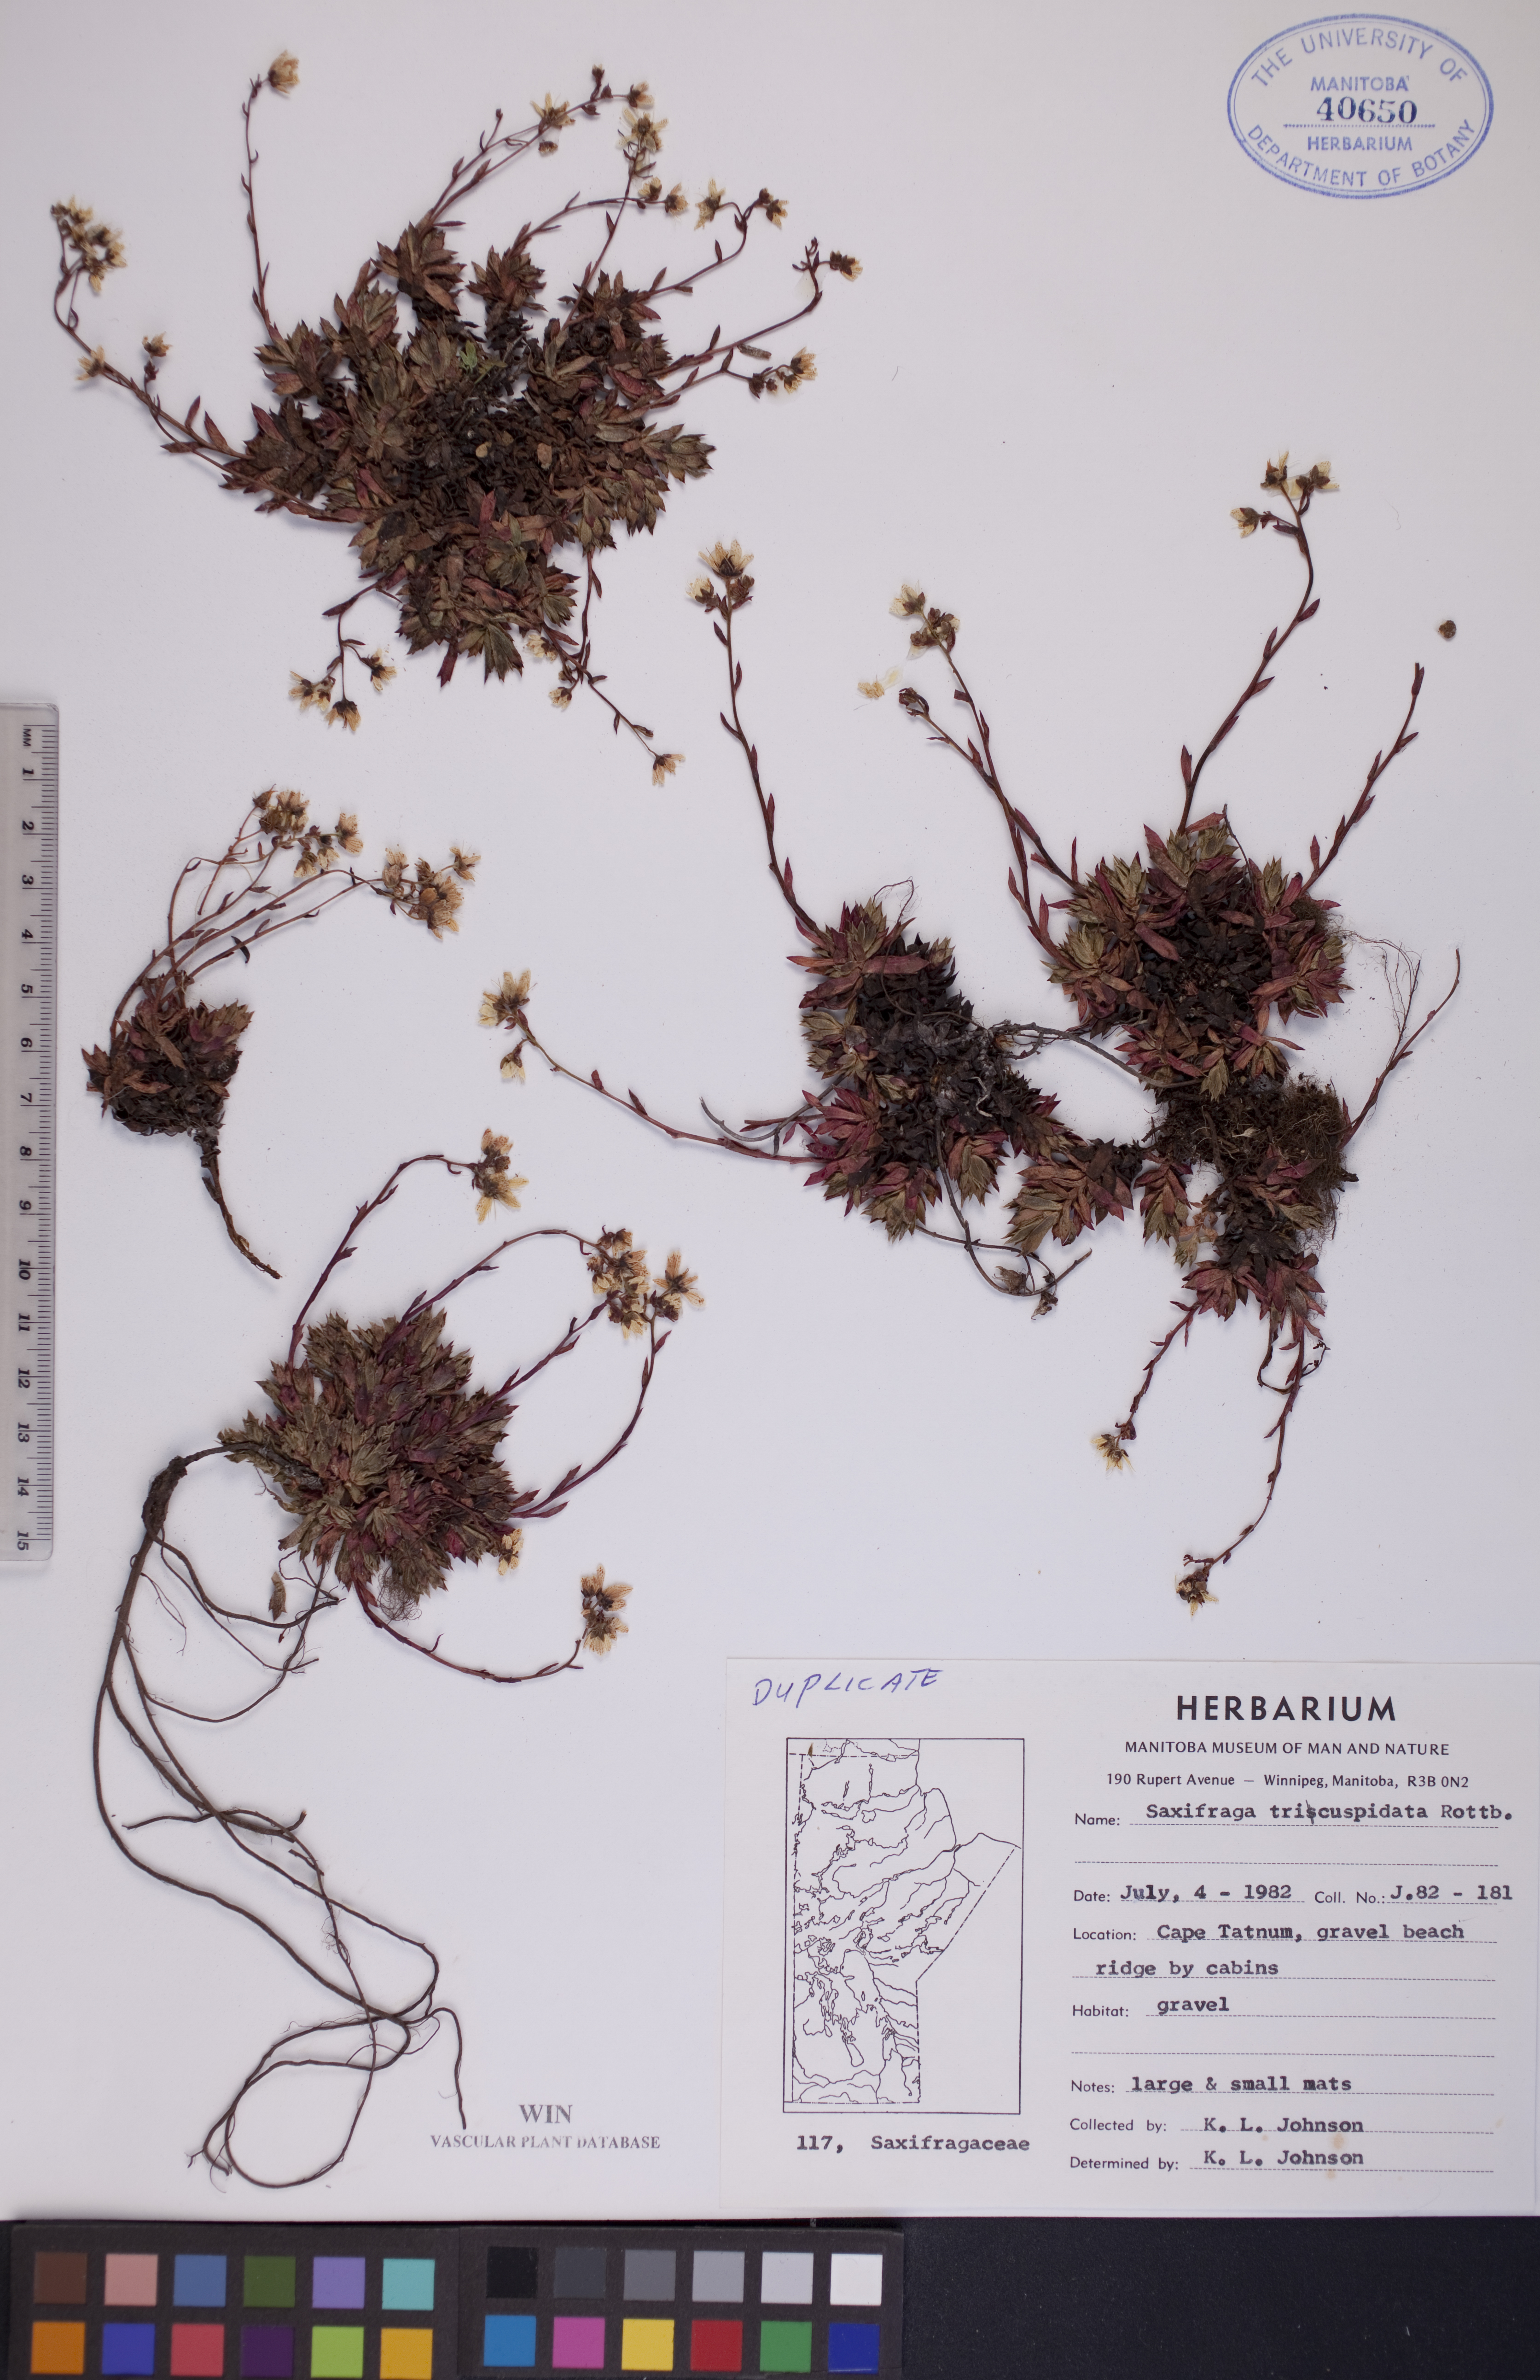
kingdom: Plantae
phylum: Tracheophyta
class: Magnoliopsida
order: Saxifragales
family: Saxifragaceae
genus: Saxifraga
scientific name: Saxifraga tricuspidata
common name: Prickly saxifrage
